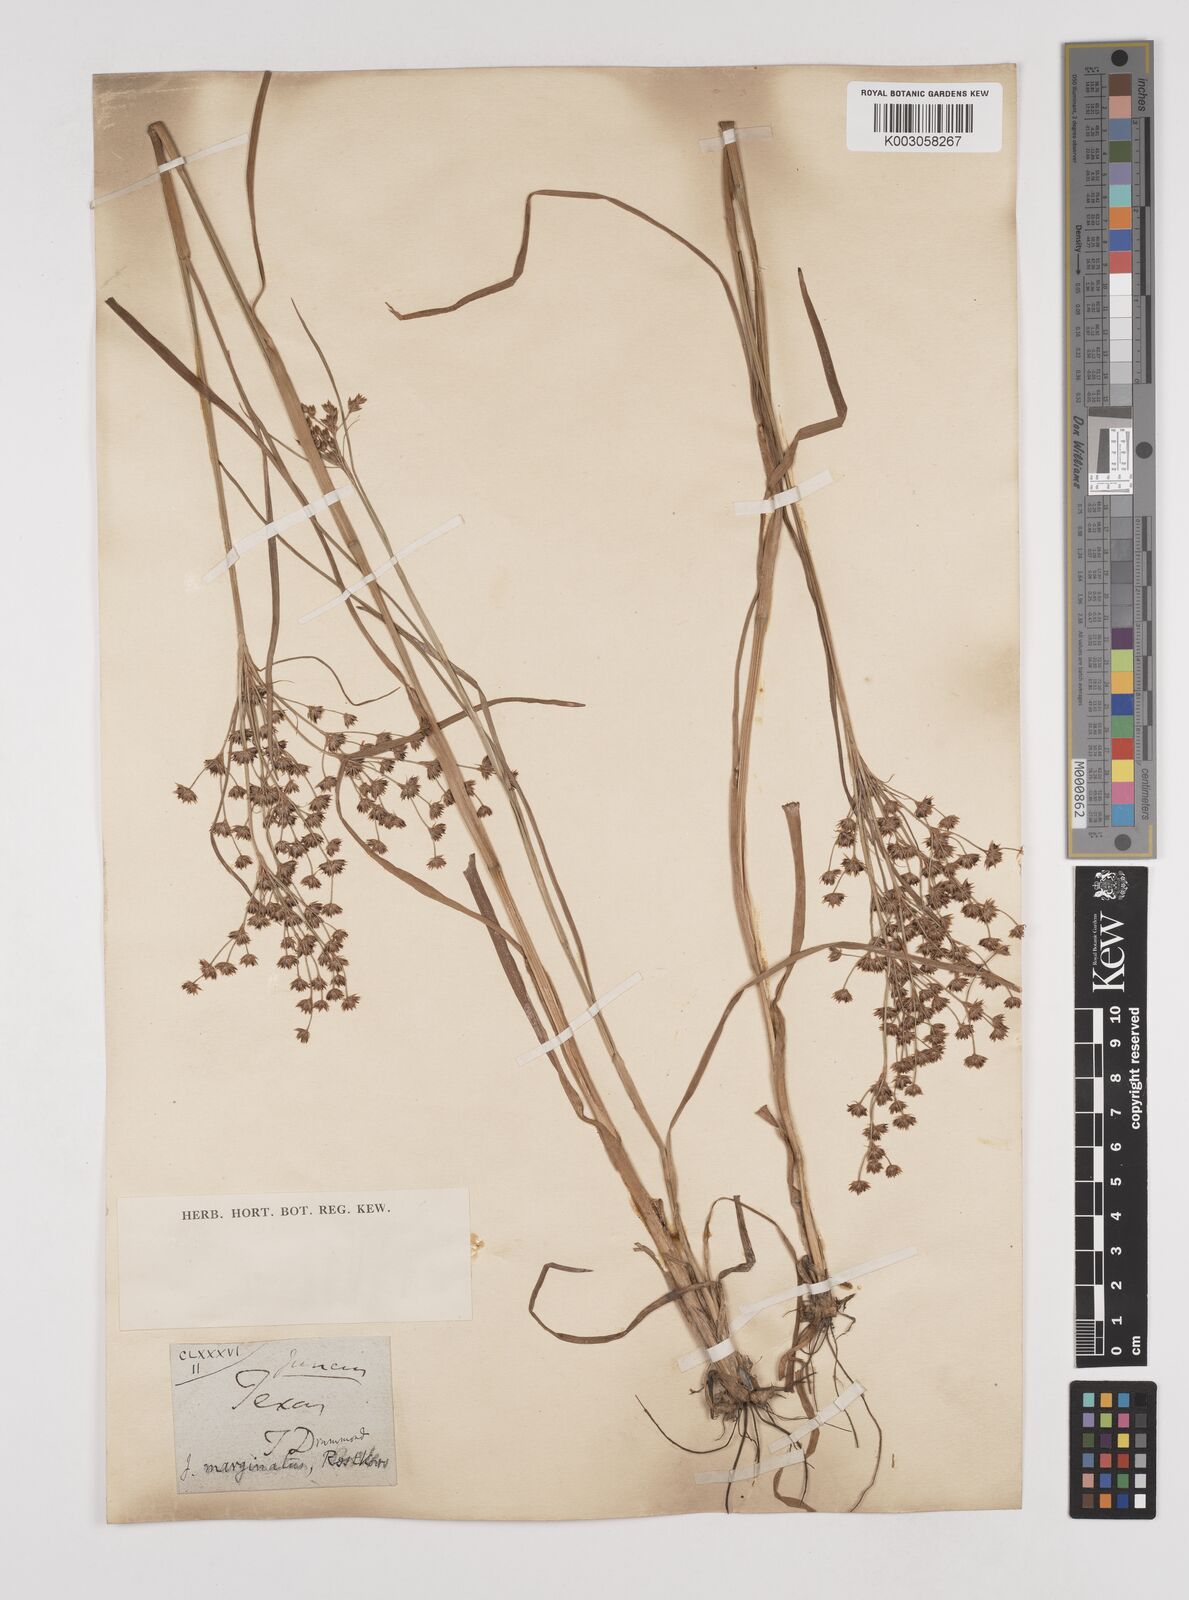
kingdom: Plantae
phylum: Tracheophyta
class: Liliopsida
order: Poales
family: Juncaceae
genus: Juncus
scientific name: Juncus
